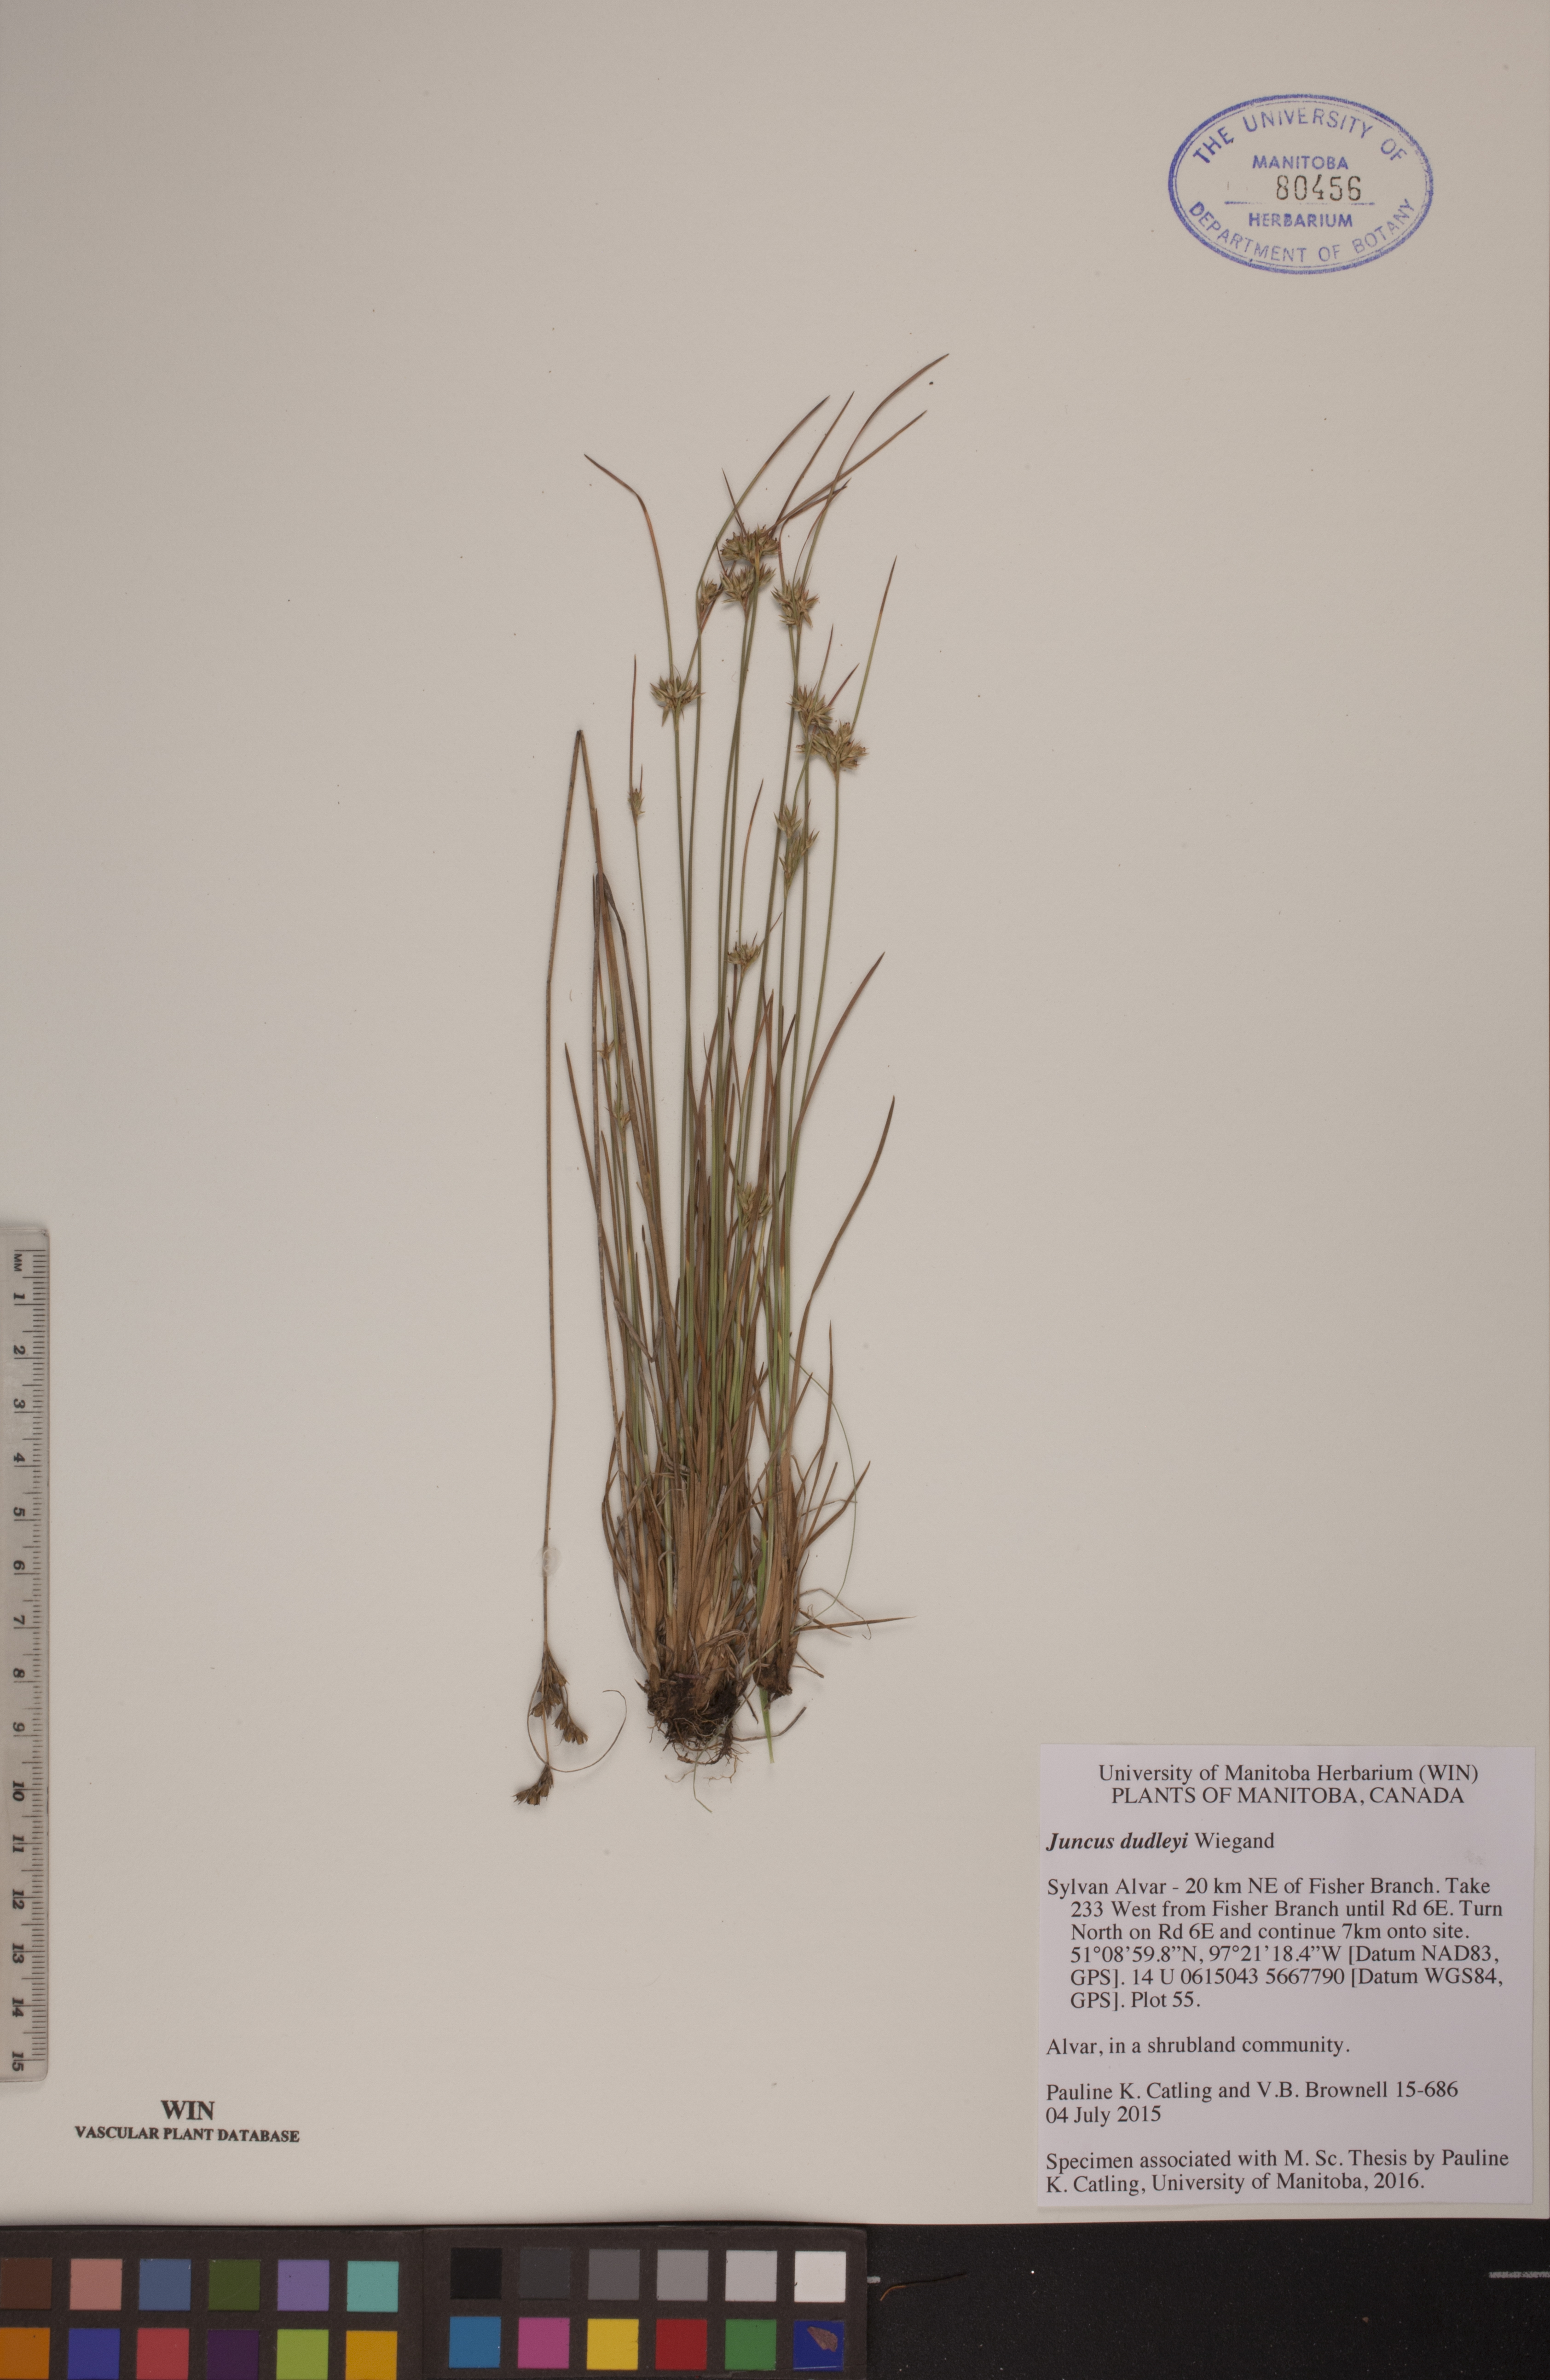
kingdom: Plantae
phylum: Tracheophyta
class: Liliopsida
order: Poales
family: Juncaceae
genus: Juncus
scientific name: Juncus dudleyi
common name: Dudley's rush
